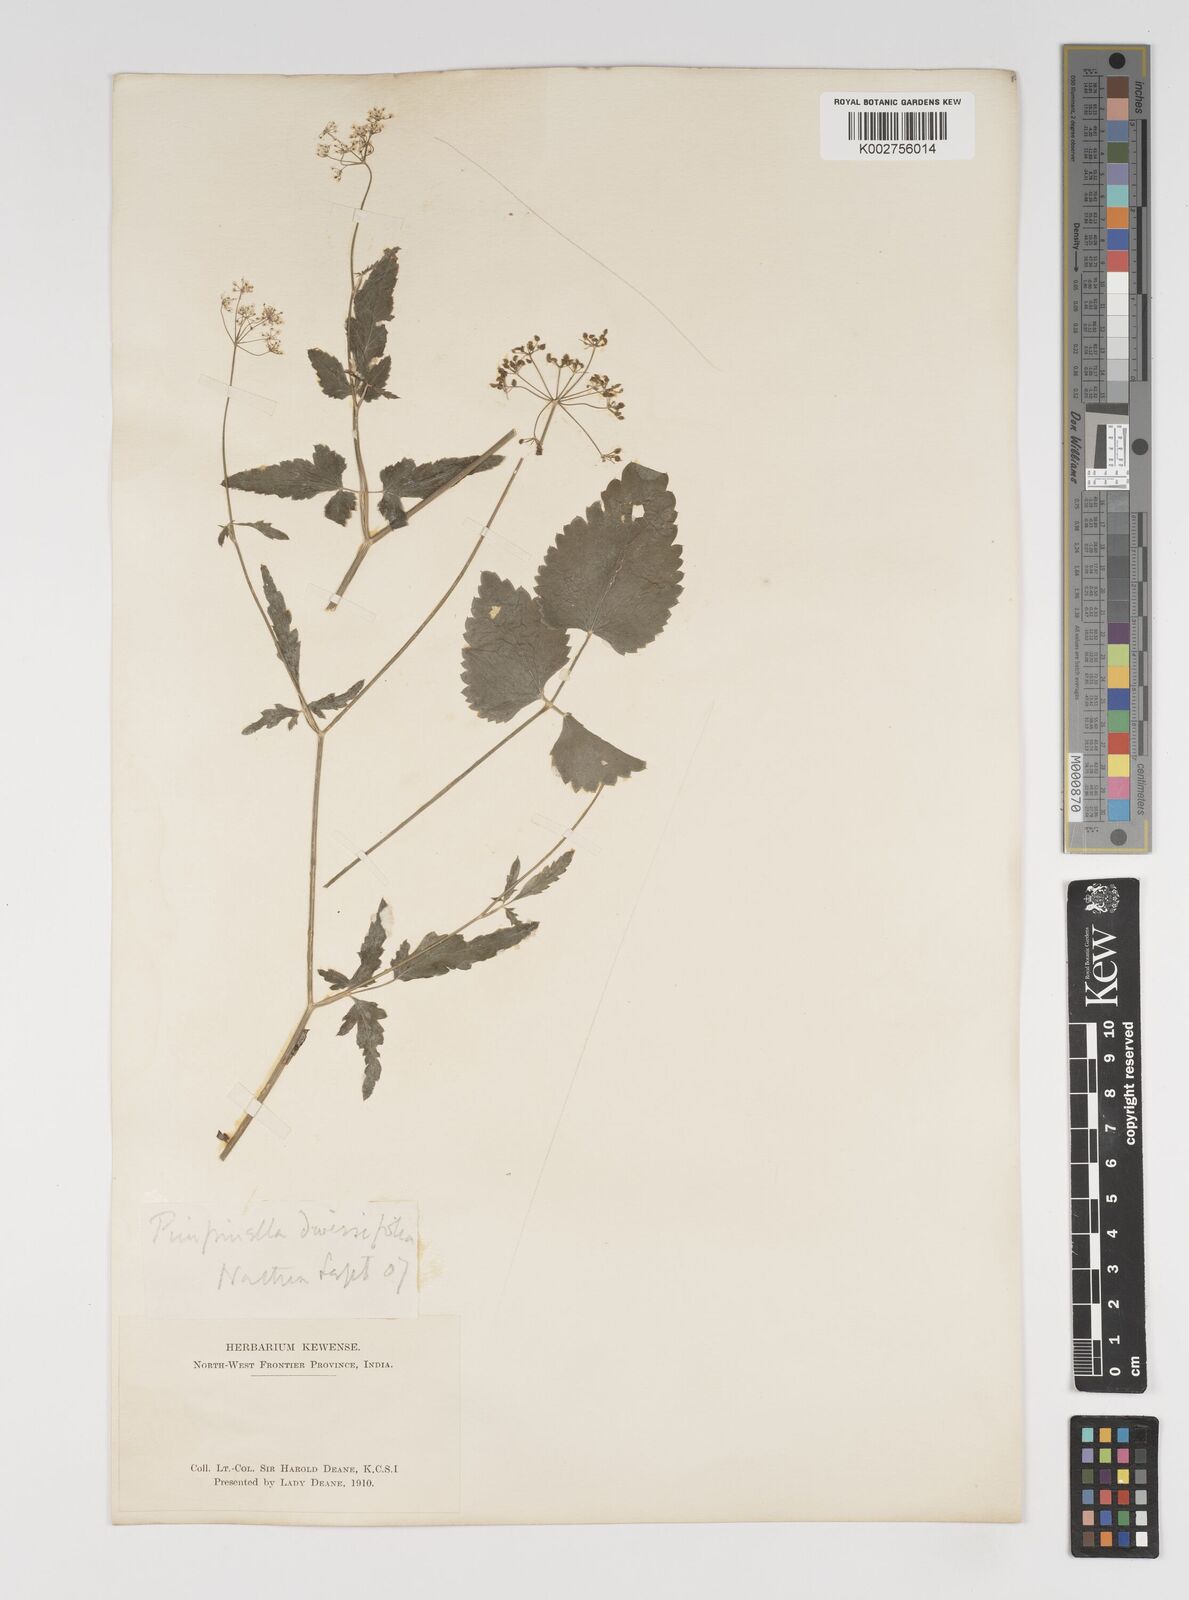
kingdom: Plantae
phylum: Tracheophyta
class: Magnoliopsida
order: Apiales
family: Apiaceae
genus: Pimpinella
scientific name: Pimpinella diversifolia
